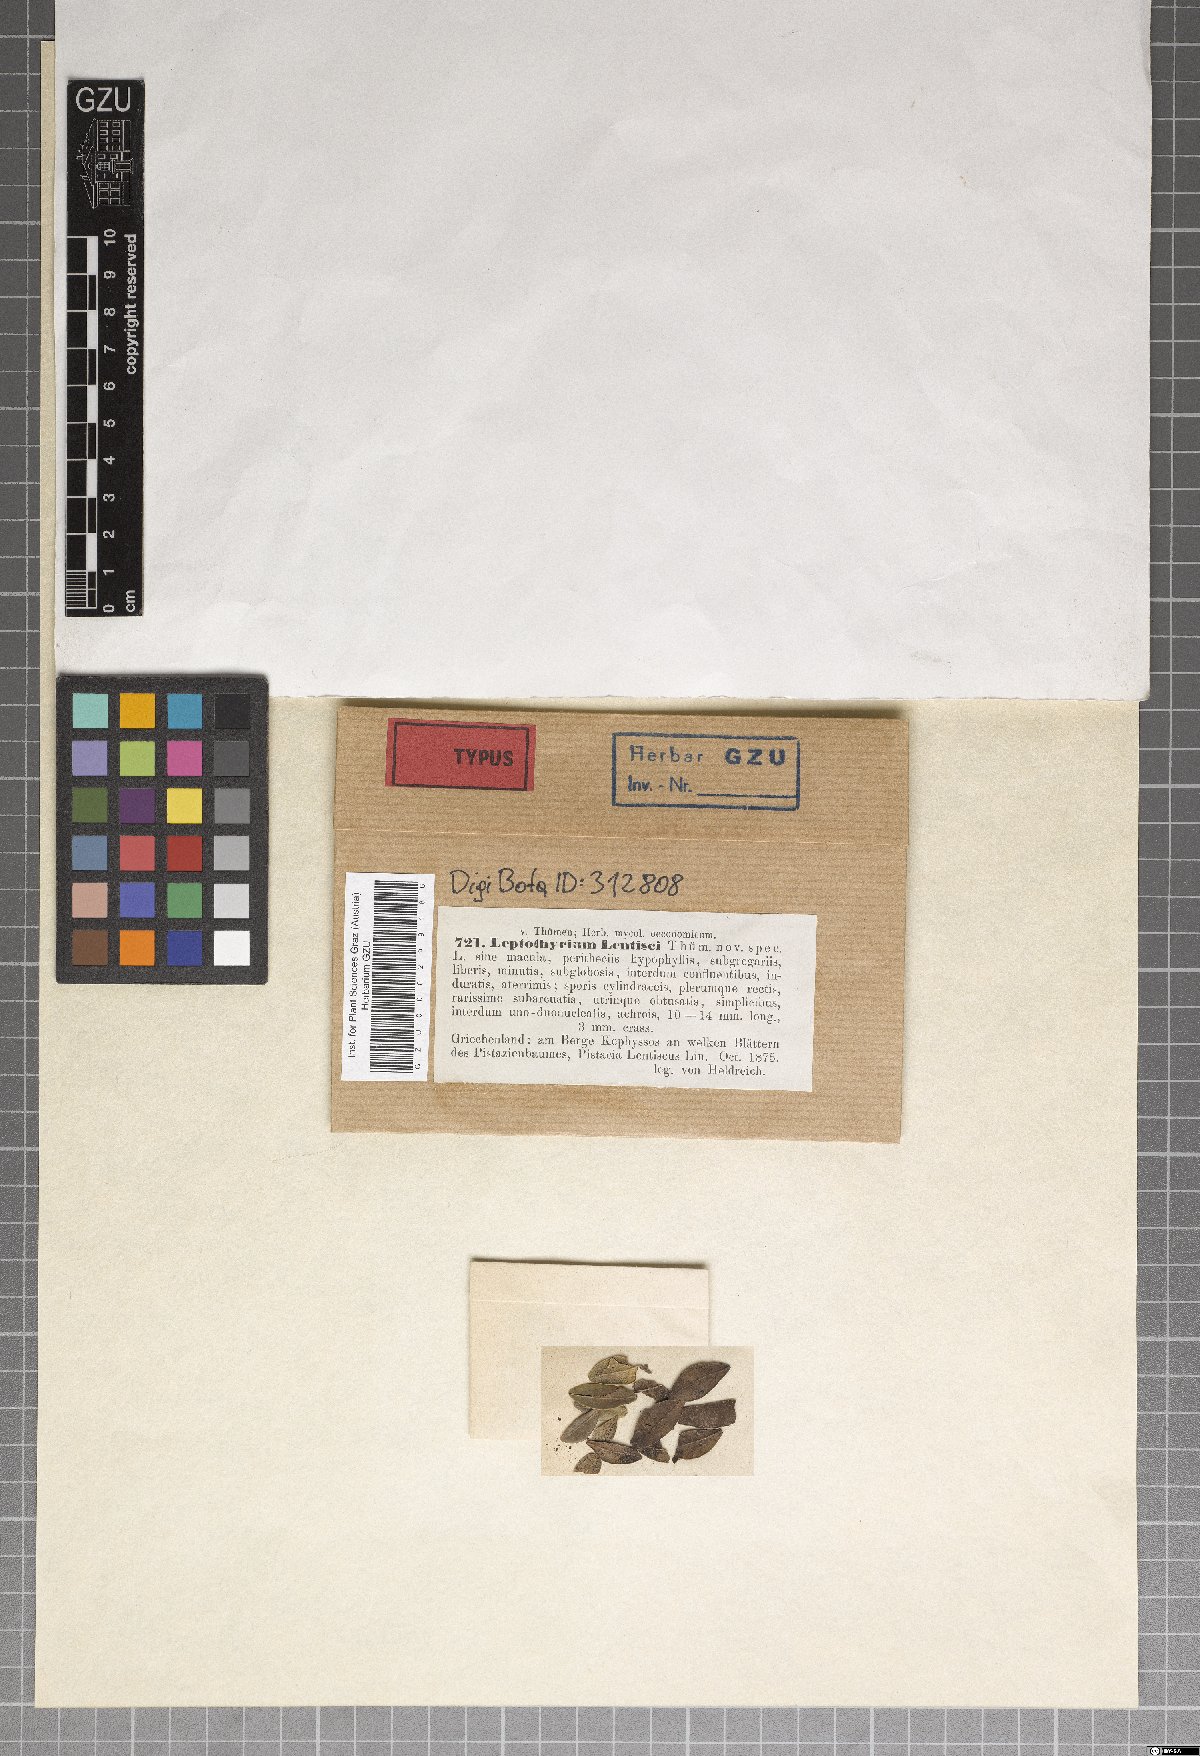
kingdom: Fungi
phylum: Ascomycota
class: Dothideomycetes
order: Pleosporales
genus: Leptothyrium
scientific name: Leptothyrium
